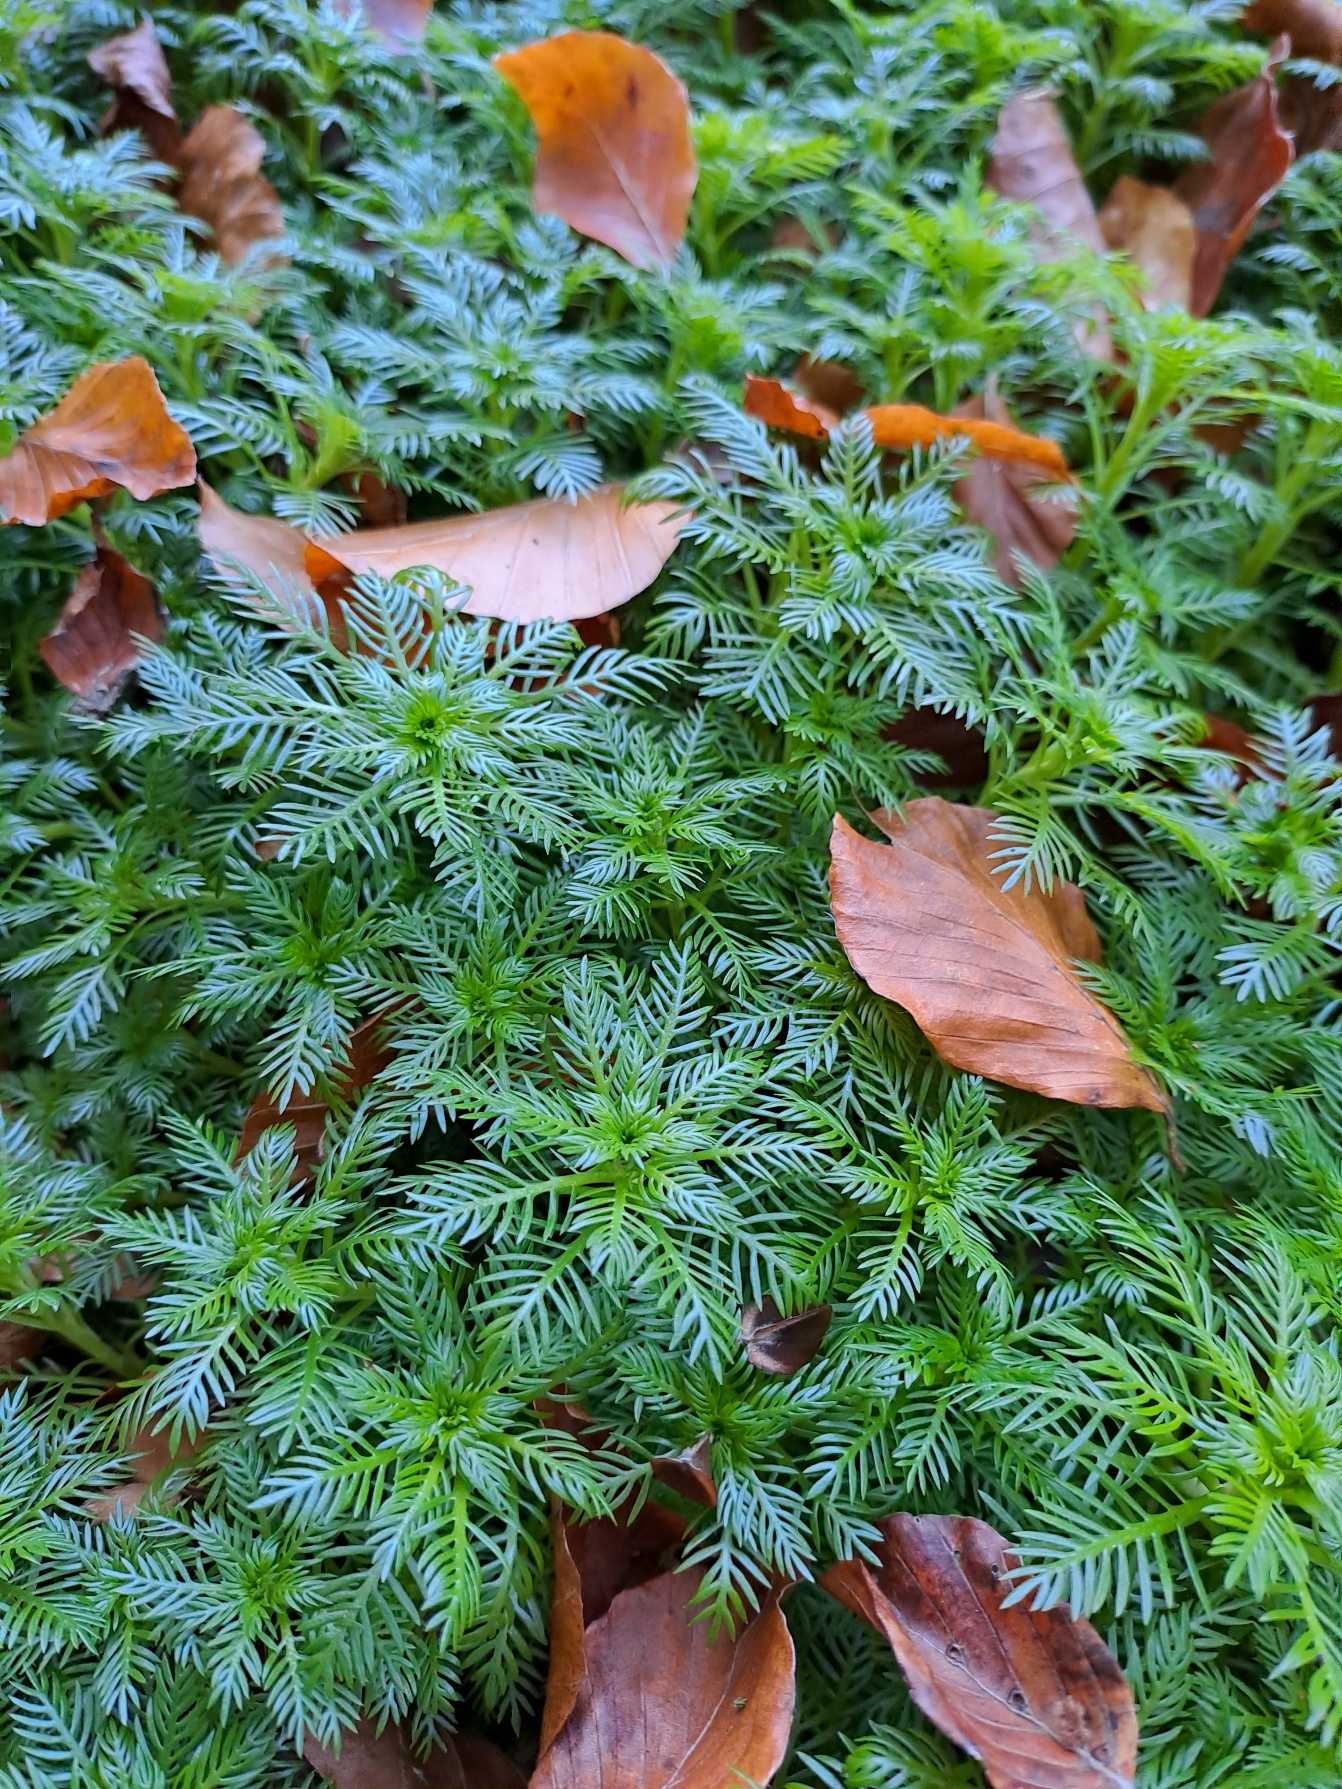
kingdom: Plantae
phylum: Tracheophyta
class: Magnoliopsida
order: Ericales
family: Primulaceae
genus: Hottonia
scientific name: Hottonia palustris
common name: Vandrøllike
